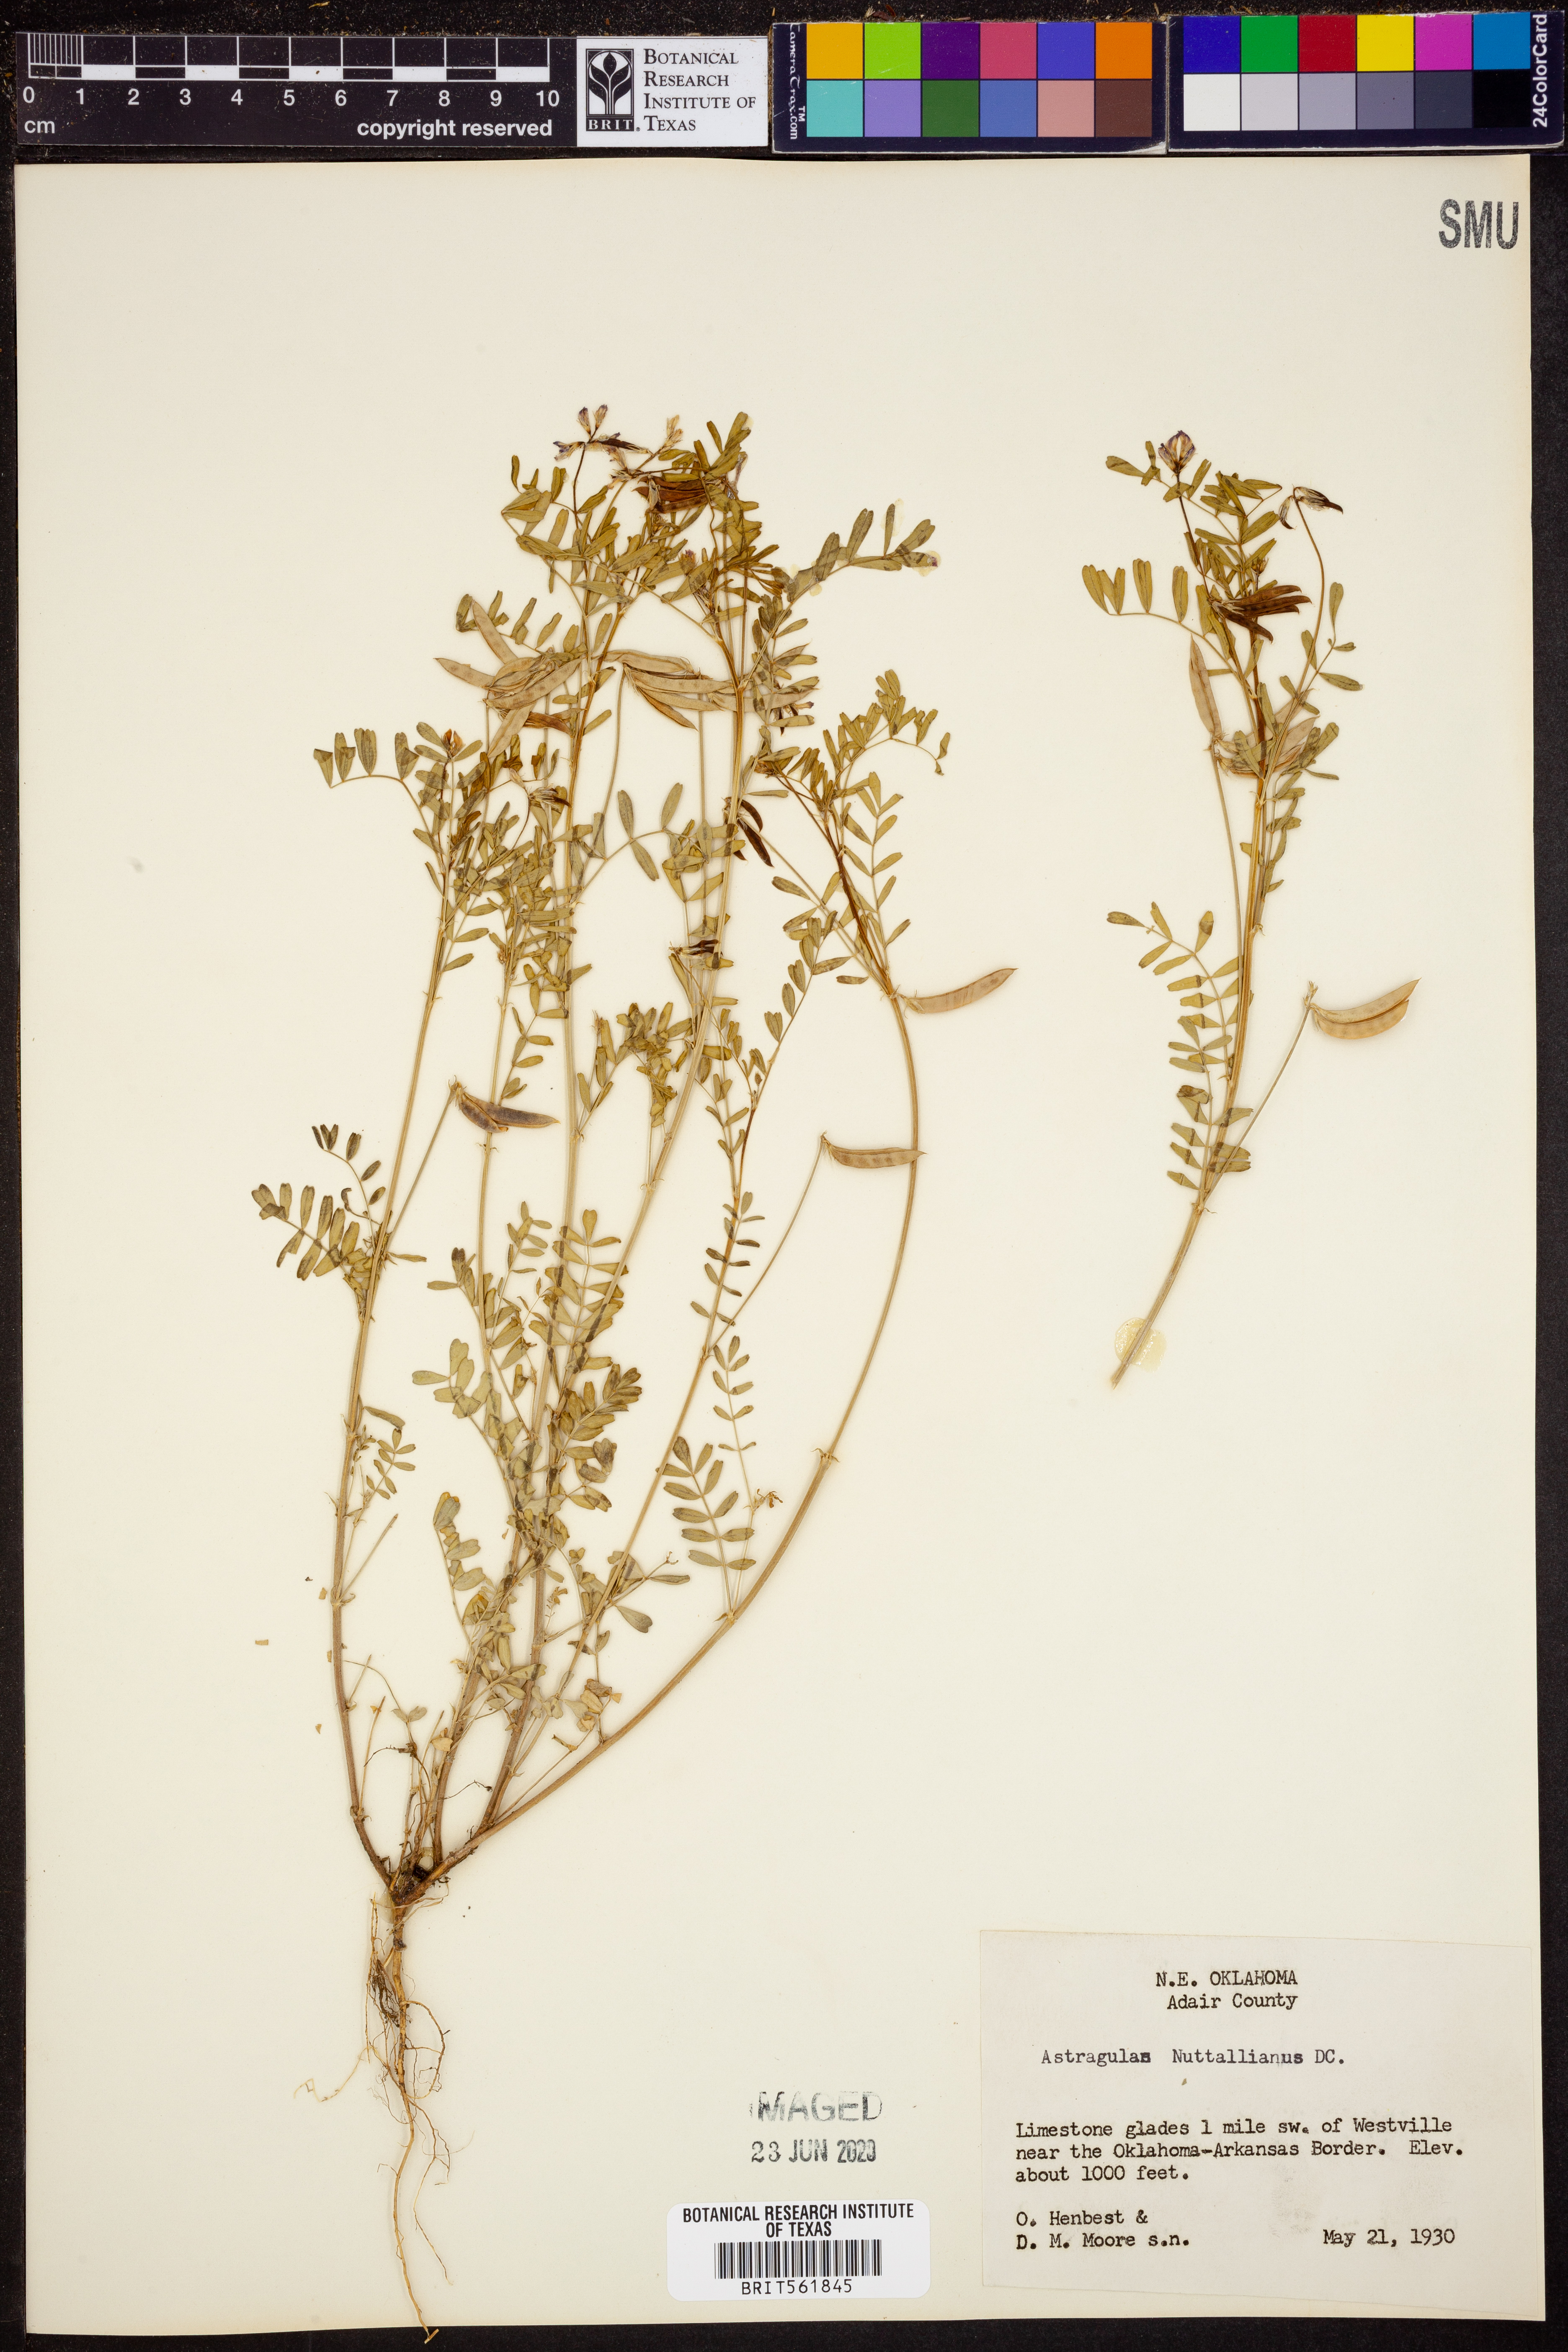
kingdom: Plantae
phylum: Tracheophyta
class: Magnoliopsida
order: Fabales
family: Fabaceae
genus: Astragalus
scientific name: Astragalus nuttallianus
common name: Smallflowered milkvetch
